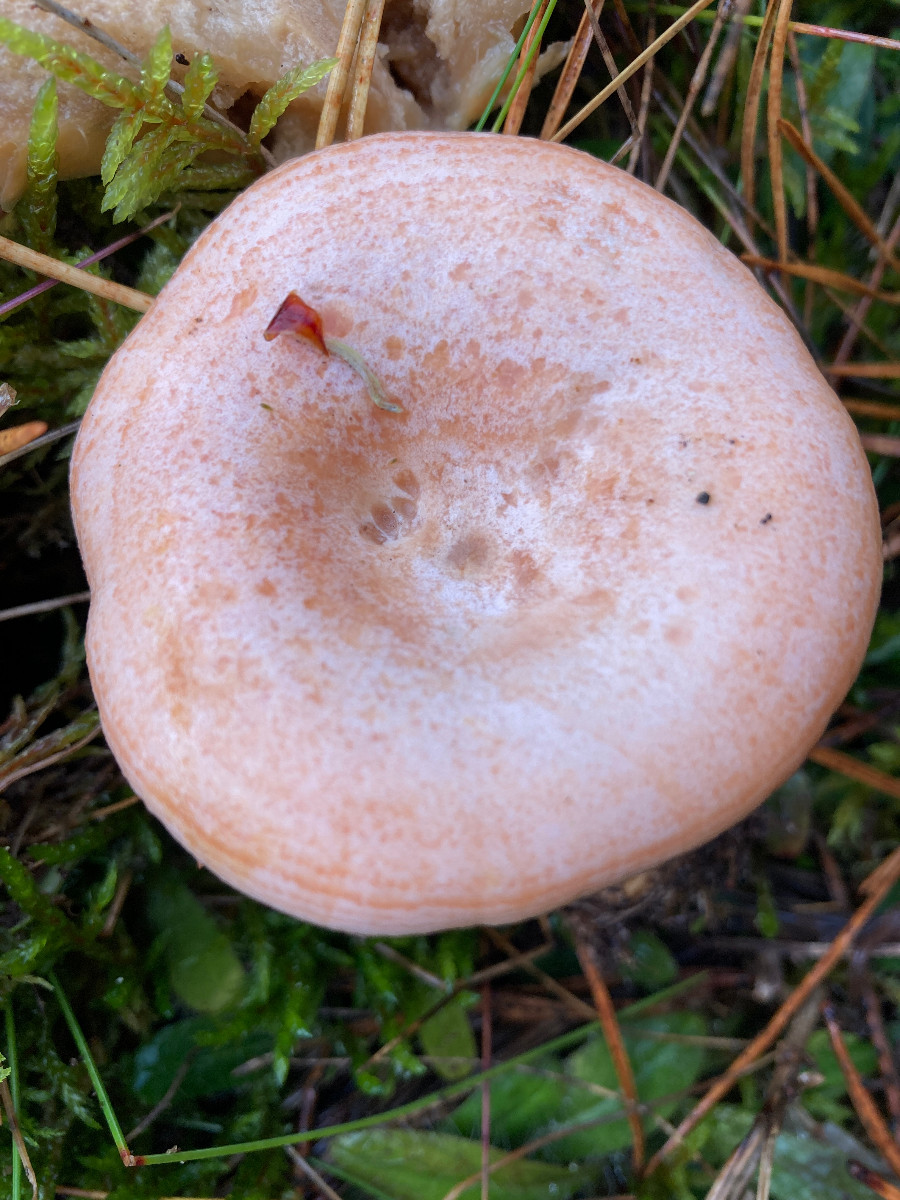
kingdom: Fungi
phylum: Basidiomycota
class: Agaricomycetes
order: Russulales
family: Russulaceae
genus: Lactarius
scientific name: Lactarius deliciosus
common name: velsmagende mælkehat
